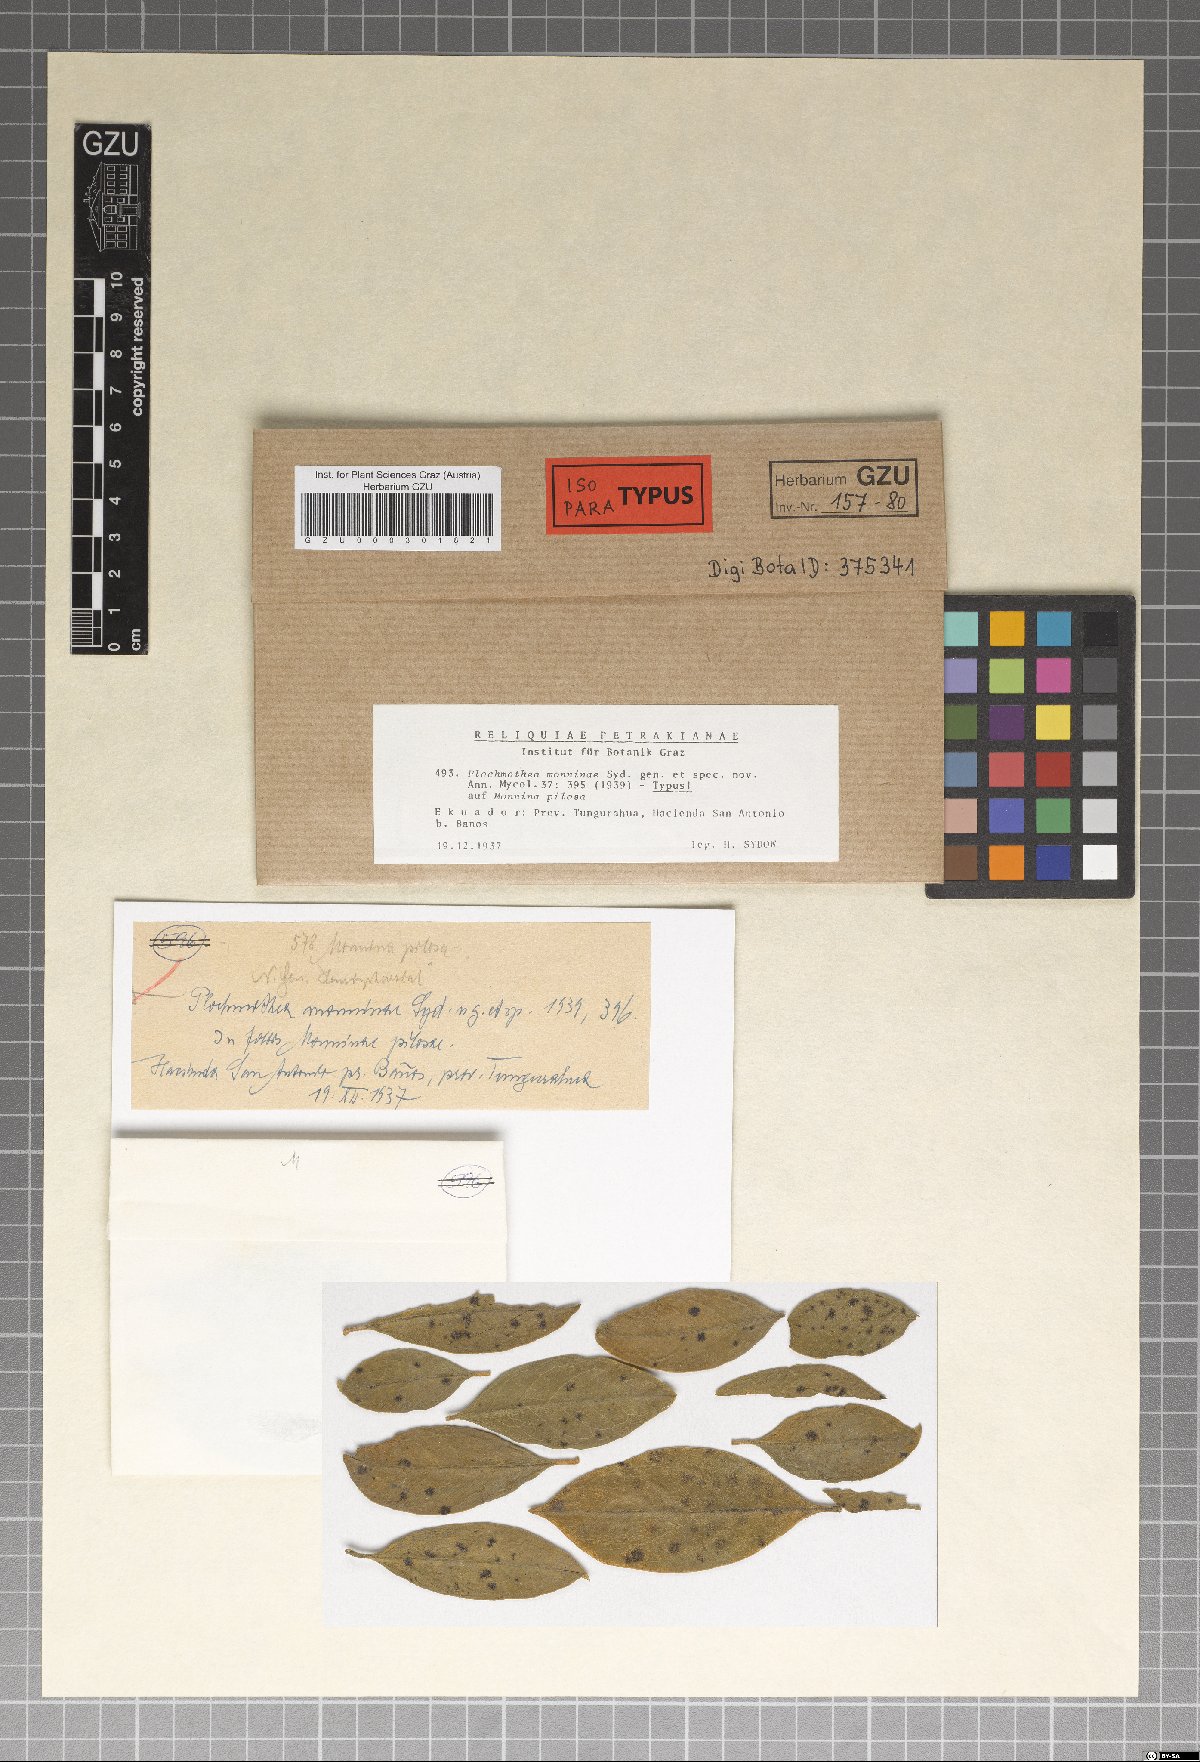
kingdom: Fungi
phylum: Ascomycota
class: Dothideomycetes
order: Microthyriales
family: Microthyriaceae
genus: Xenostomella
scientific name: Xenostomella monninae
